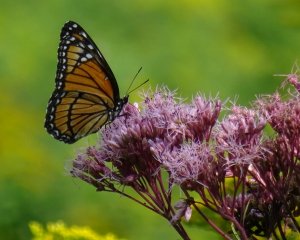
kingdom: Animalia
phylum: Arthropoda
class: Insecta
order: Lepidoptera
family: Nymphalidae
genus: Limenitis
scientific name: Limenitis archippus
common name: Viceroy
